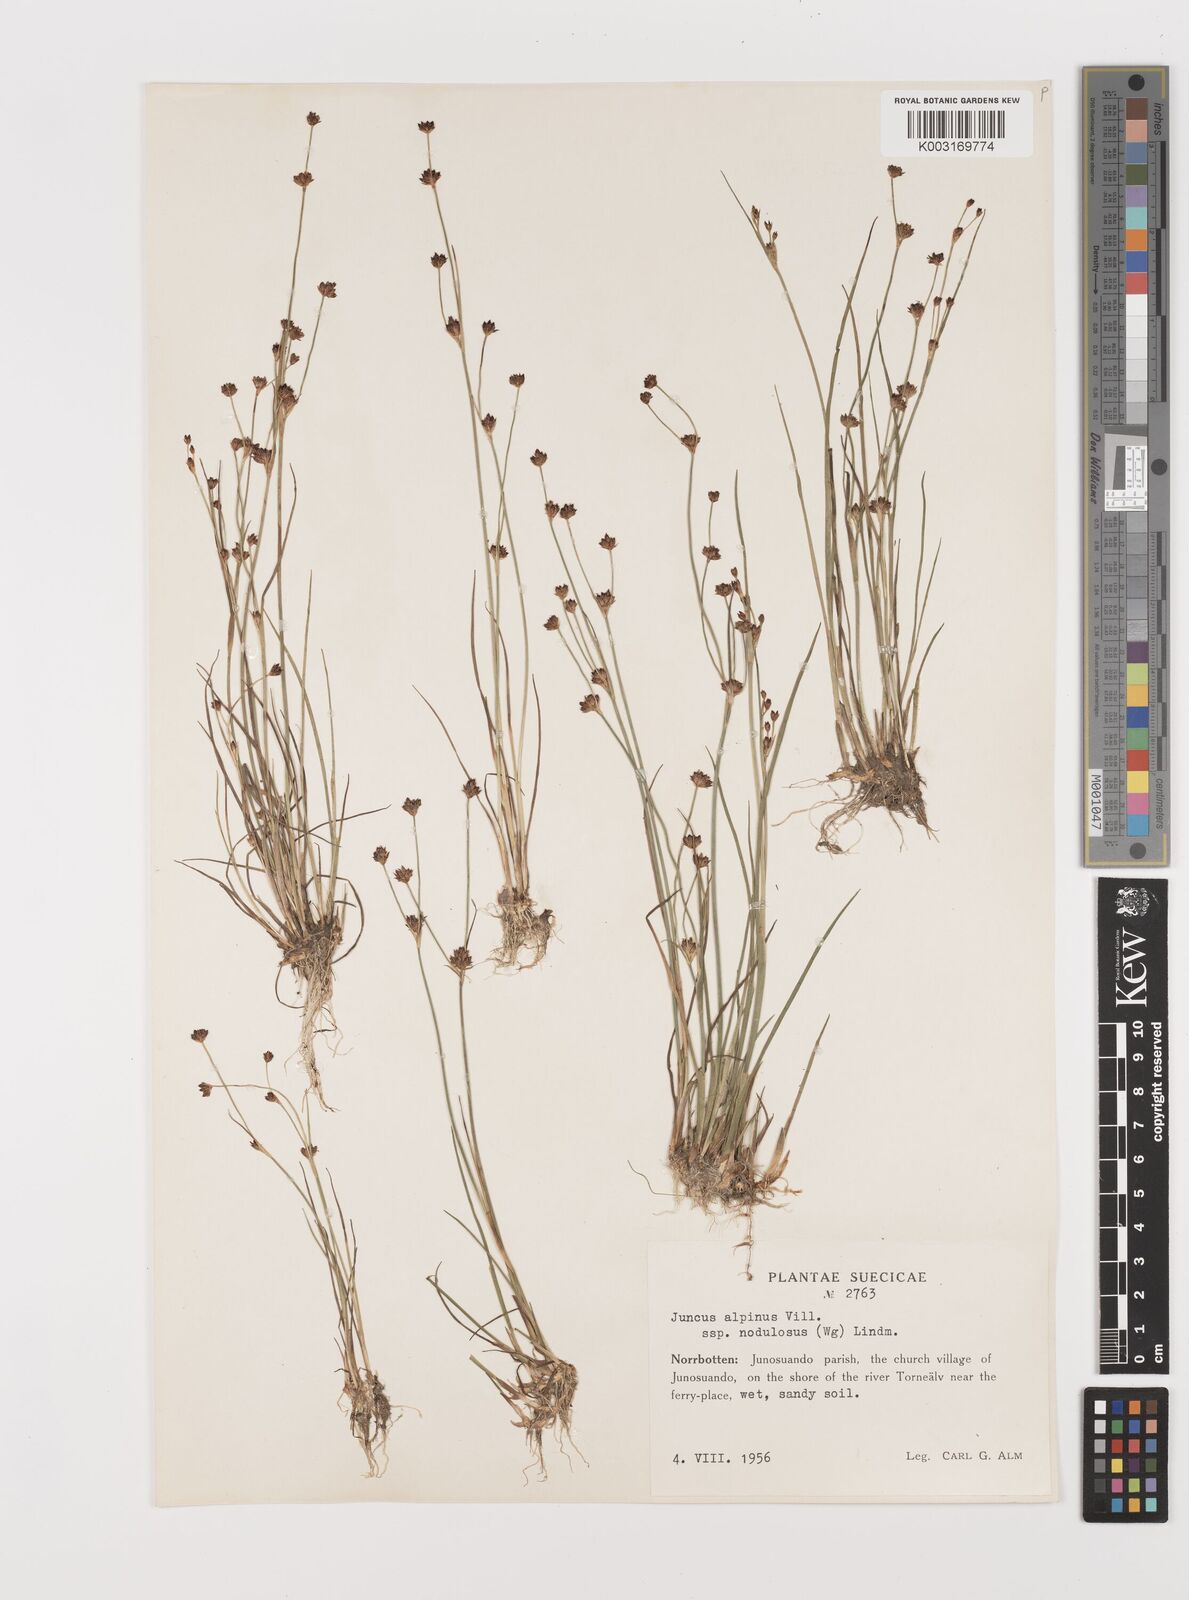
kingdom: Plantae
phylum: Tracheophyta
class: Liliopsida
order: Poales
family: Juncaceae
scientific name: Juncaceae
